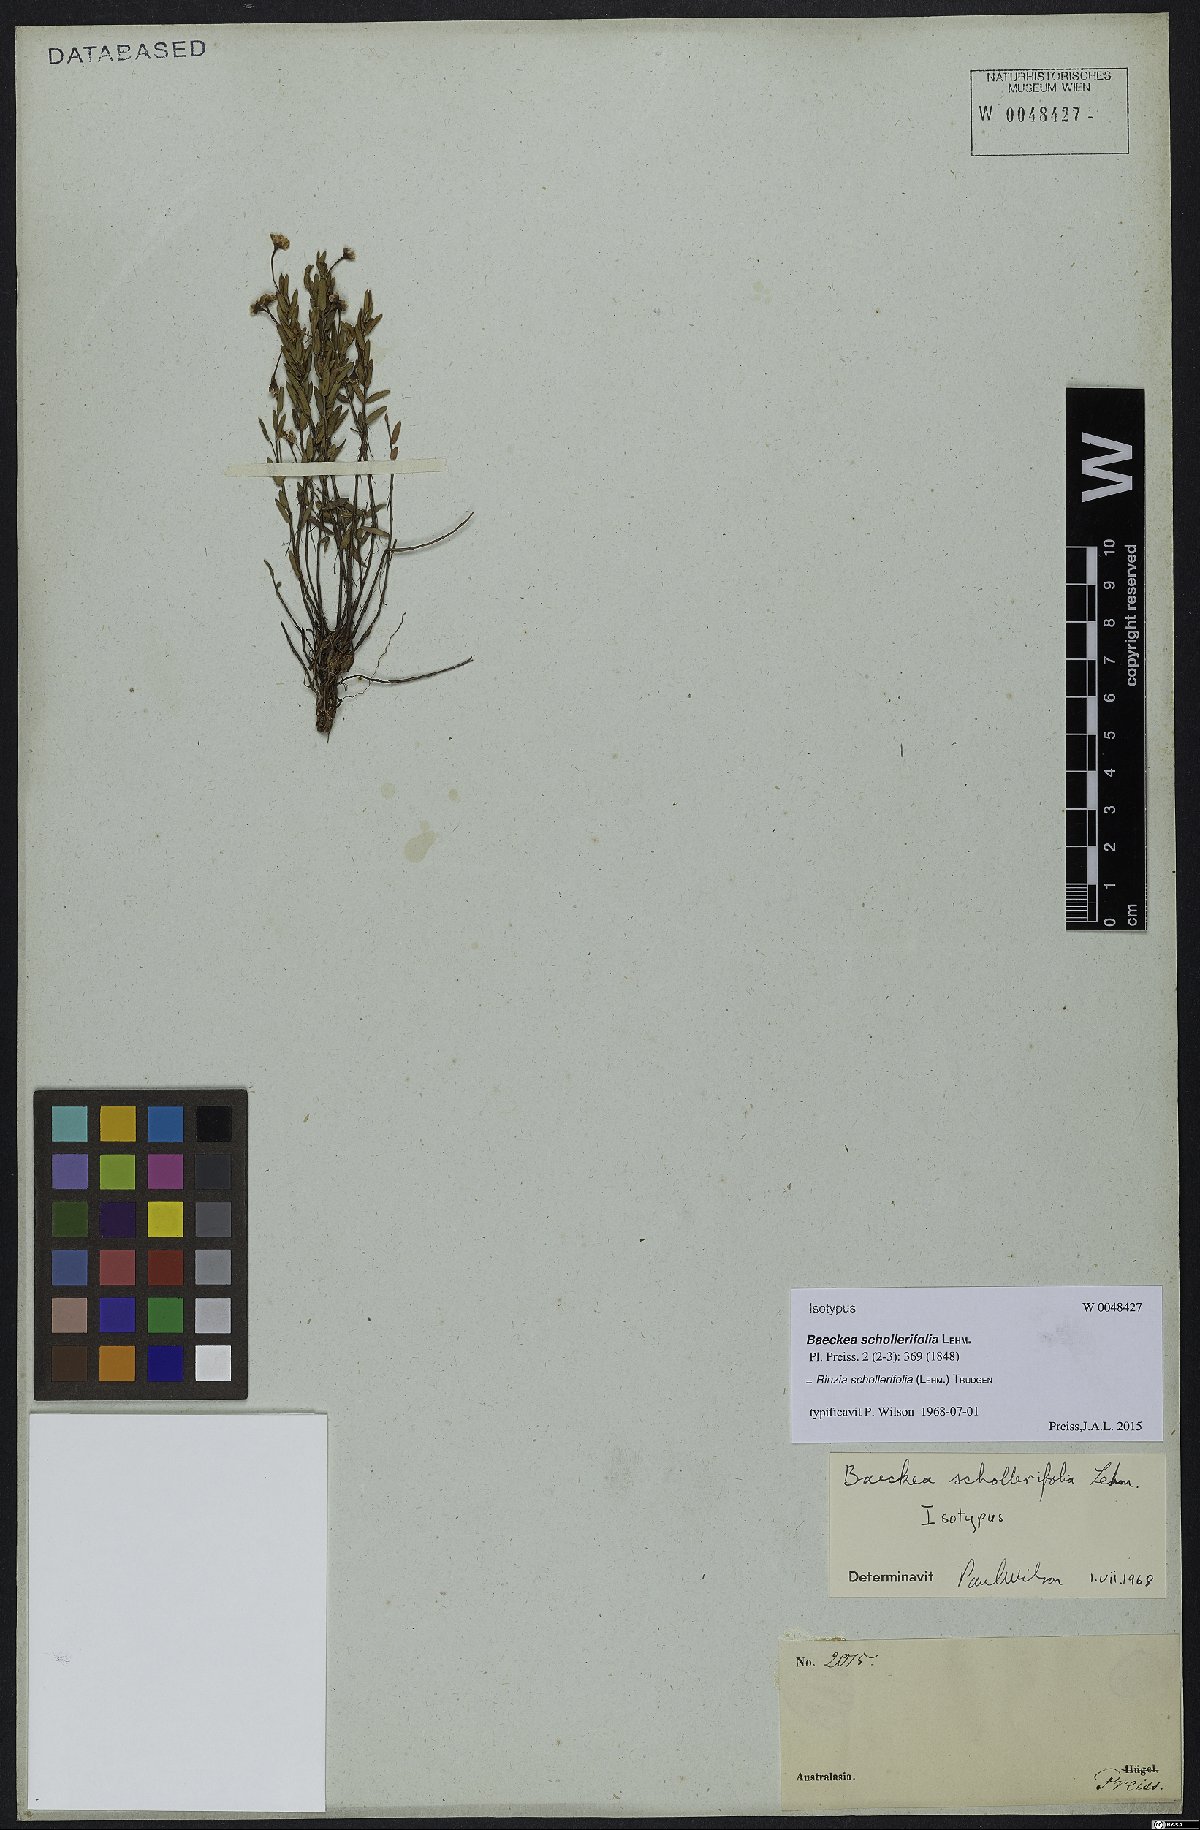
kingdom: Plantae
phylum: Tracheophyta
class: Magnoliopsida
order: Myrtales
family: Myrtaceae
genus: Rinzia
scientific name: Rinzia schollerifolia
